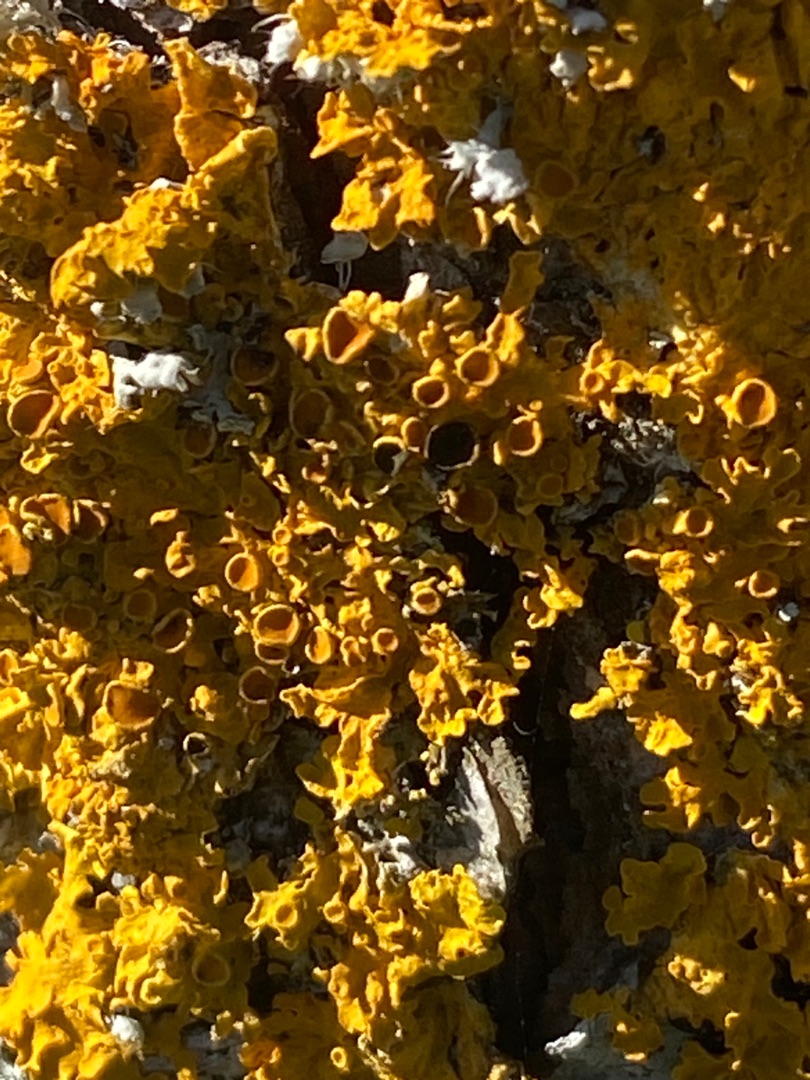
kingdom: Fungi
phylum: Ascomycota
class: Lecanoromycetes
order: Teloschistales
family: Teloschistaceae
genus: Xanthoria
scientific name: Xanthoria parietina
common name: Almindelig væggelav
